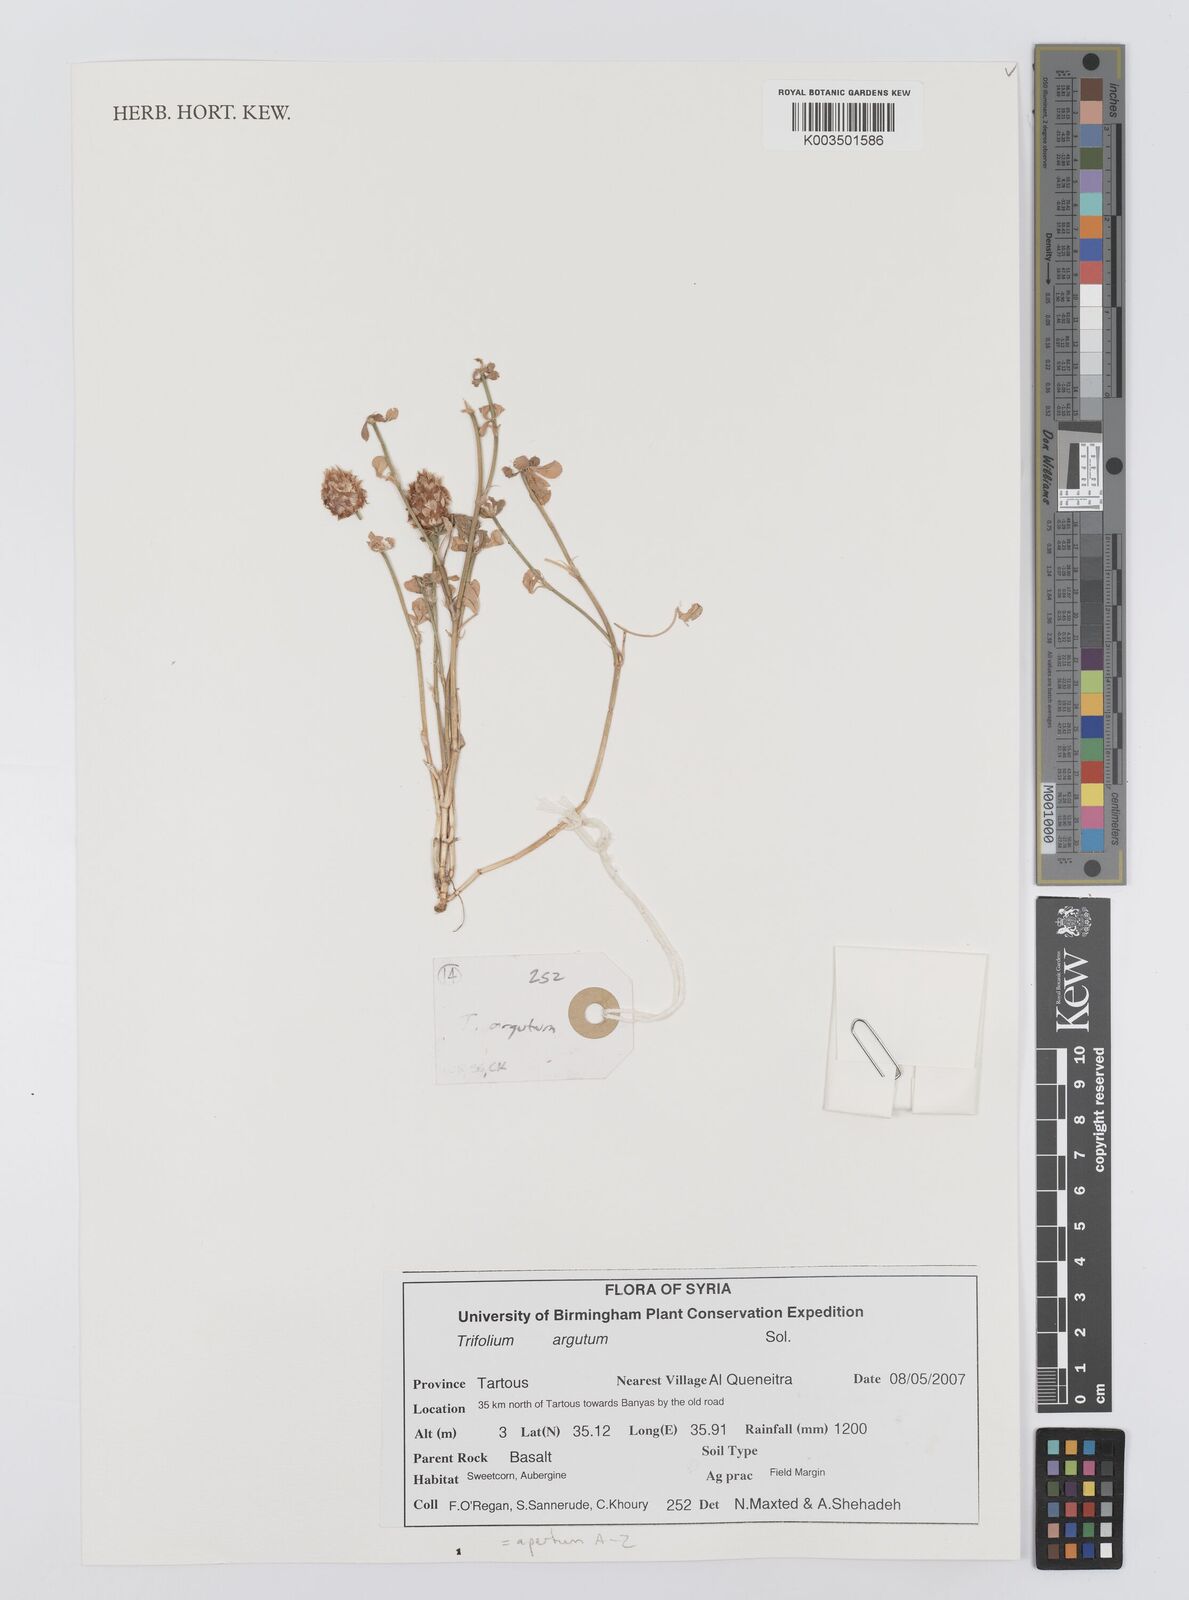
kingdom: Plantae
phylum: Tracheophyta
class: Magnoliopsida
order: Fabales
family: Fabaceae
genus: Trifolium
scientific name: Trifolium apertum
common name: Open clover
